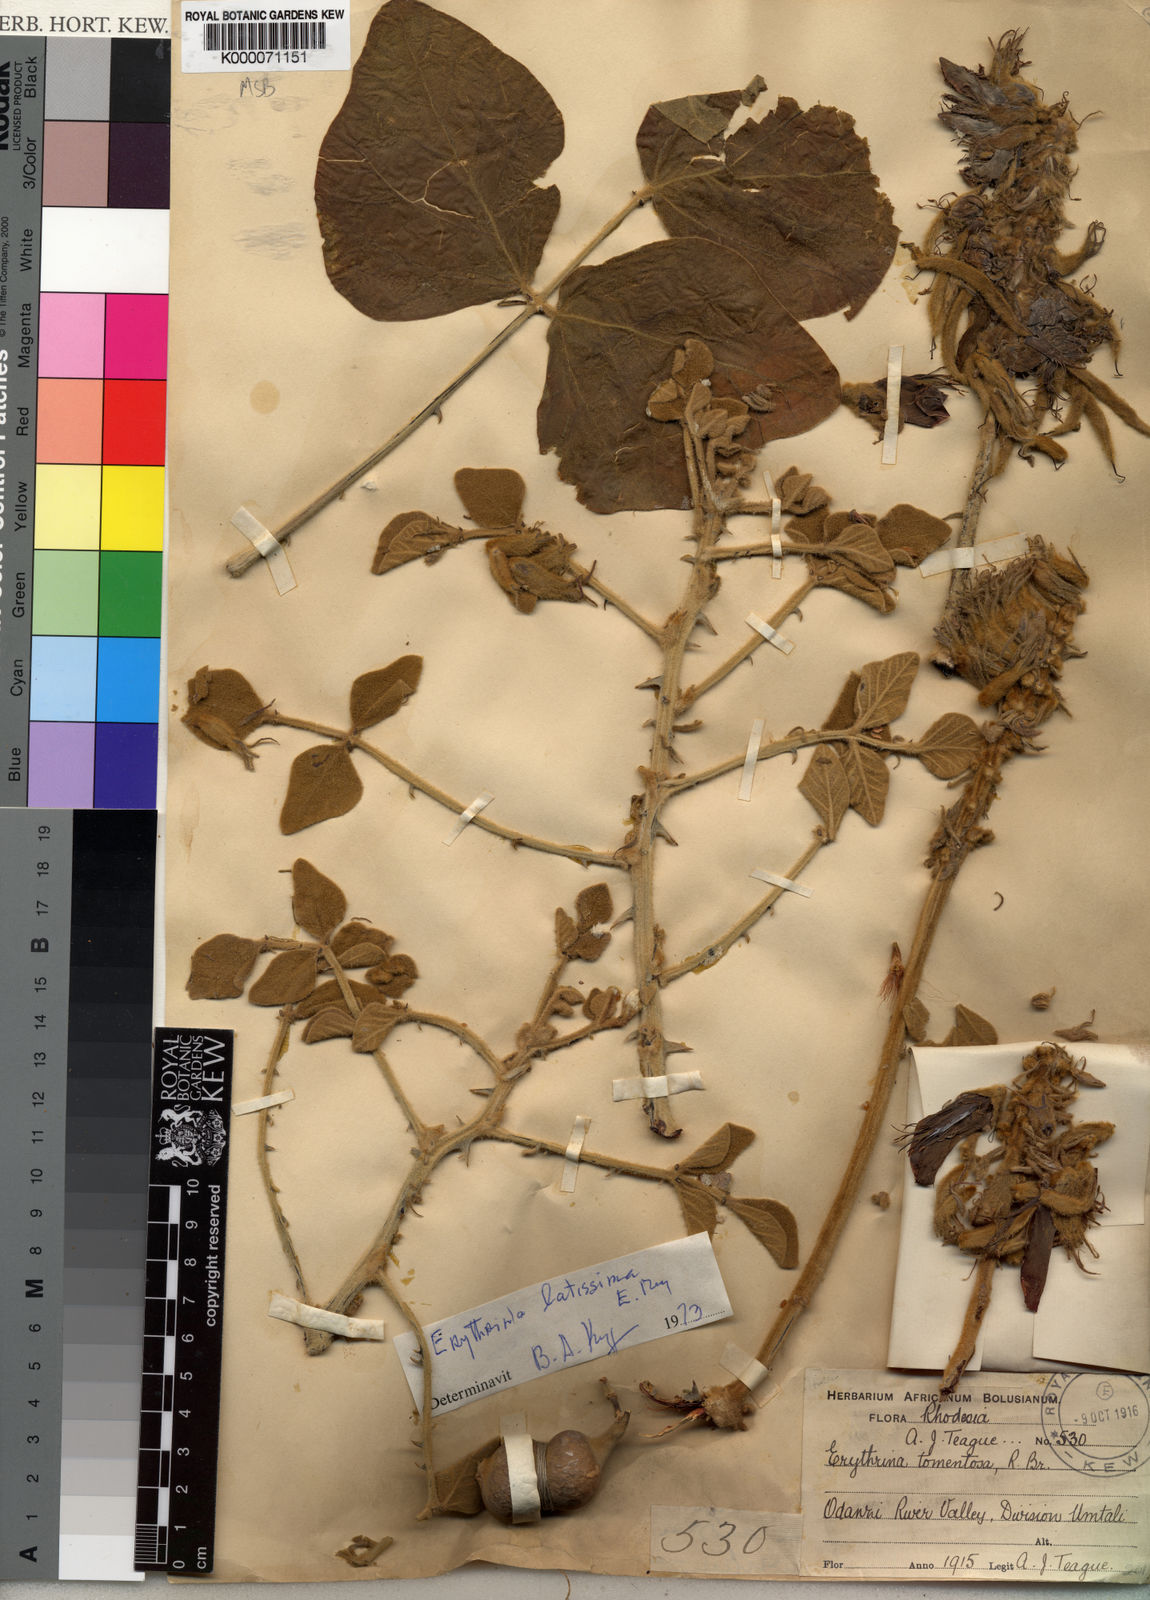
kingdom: Plantae
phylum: Tracheophyta
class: Magnoliopsida
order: Fabales
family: Fabaceae
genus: Erythrina
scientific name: Erythrina latissima
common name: Broad-leaved coral tree
